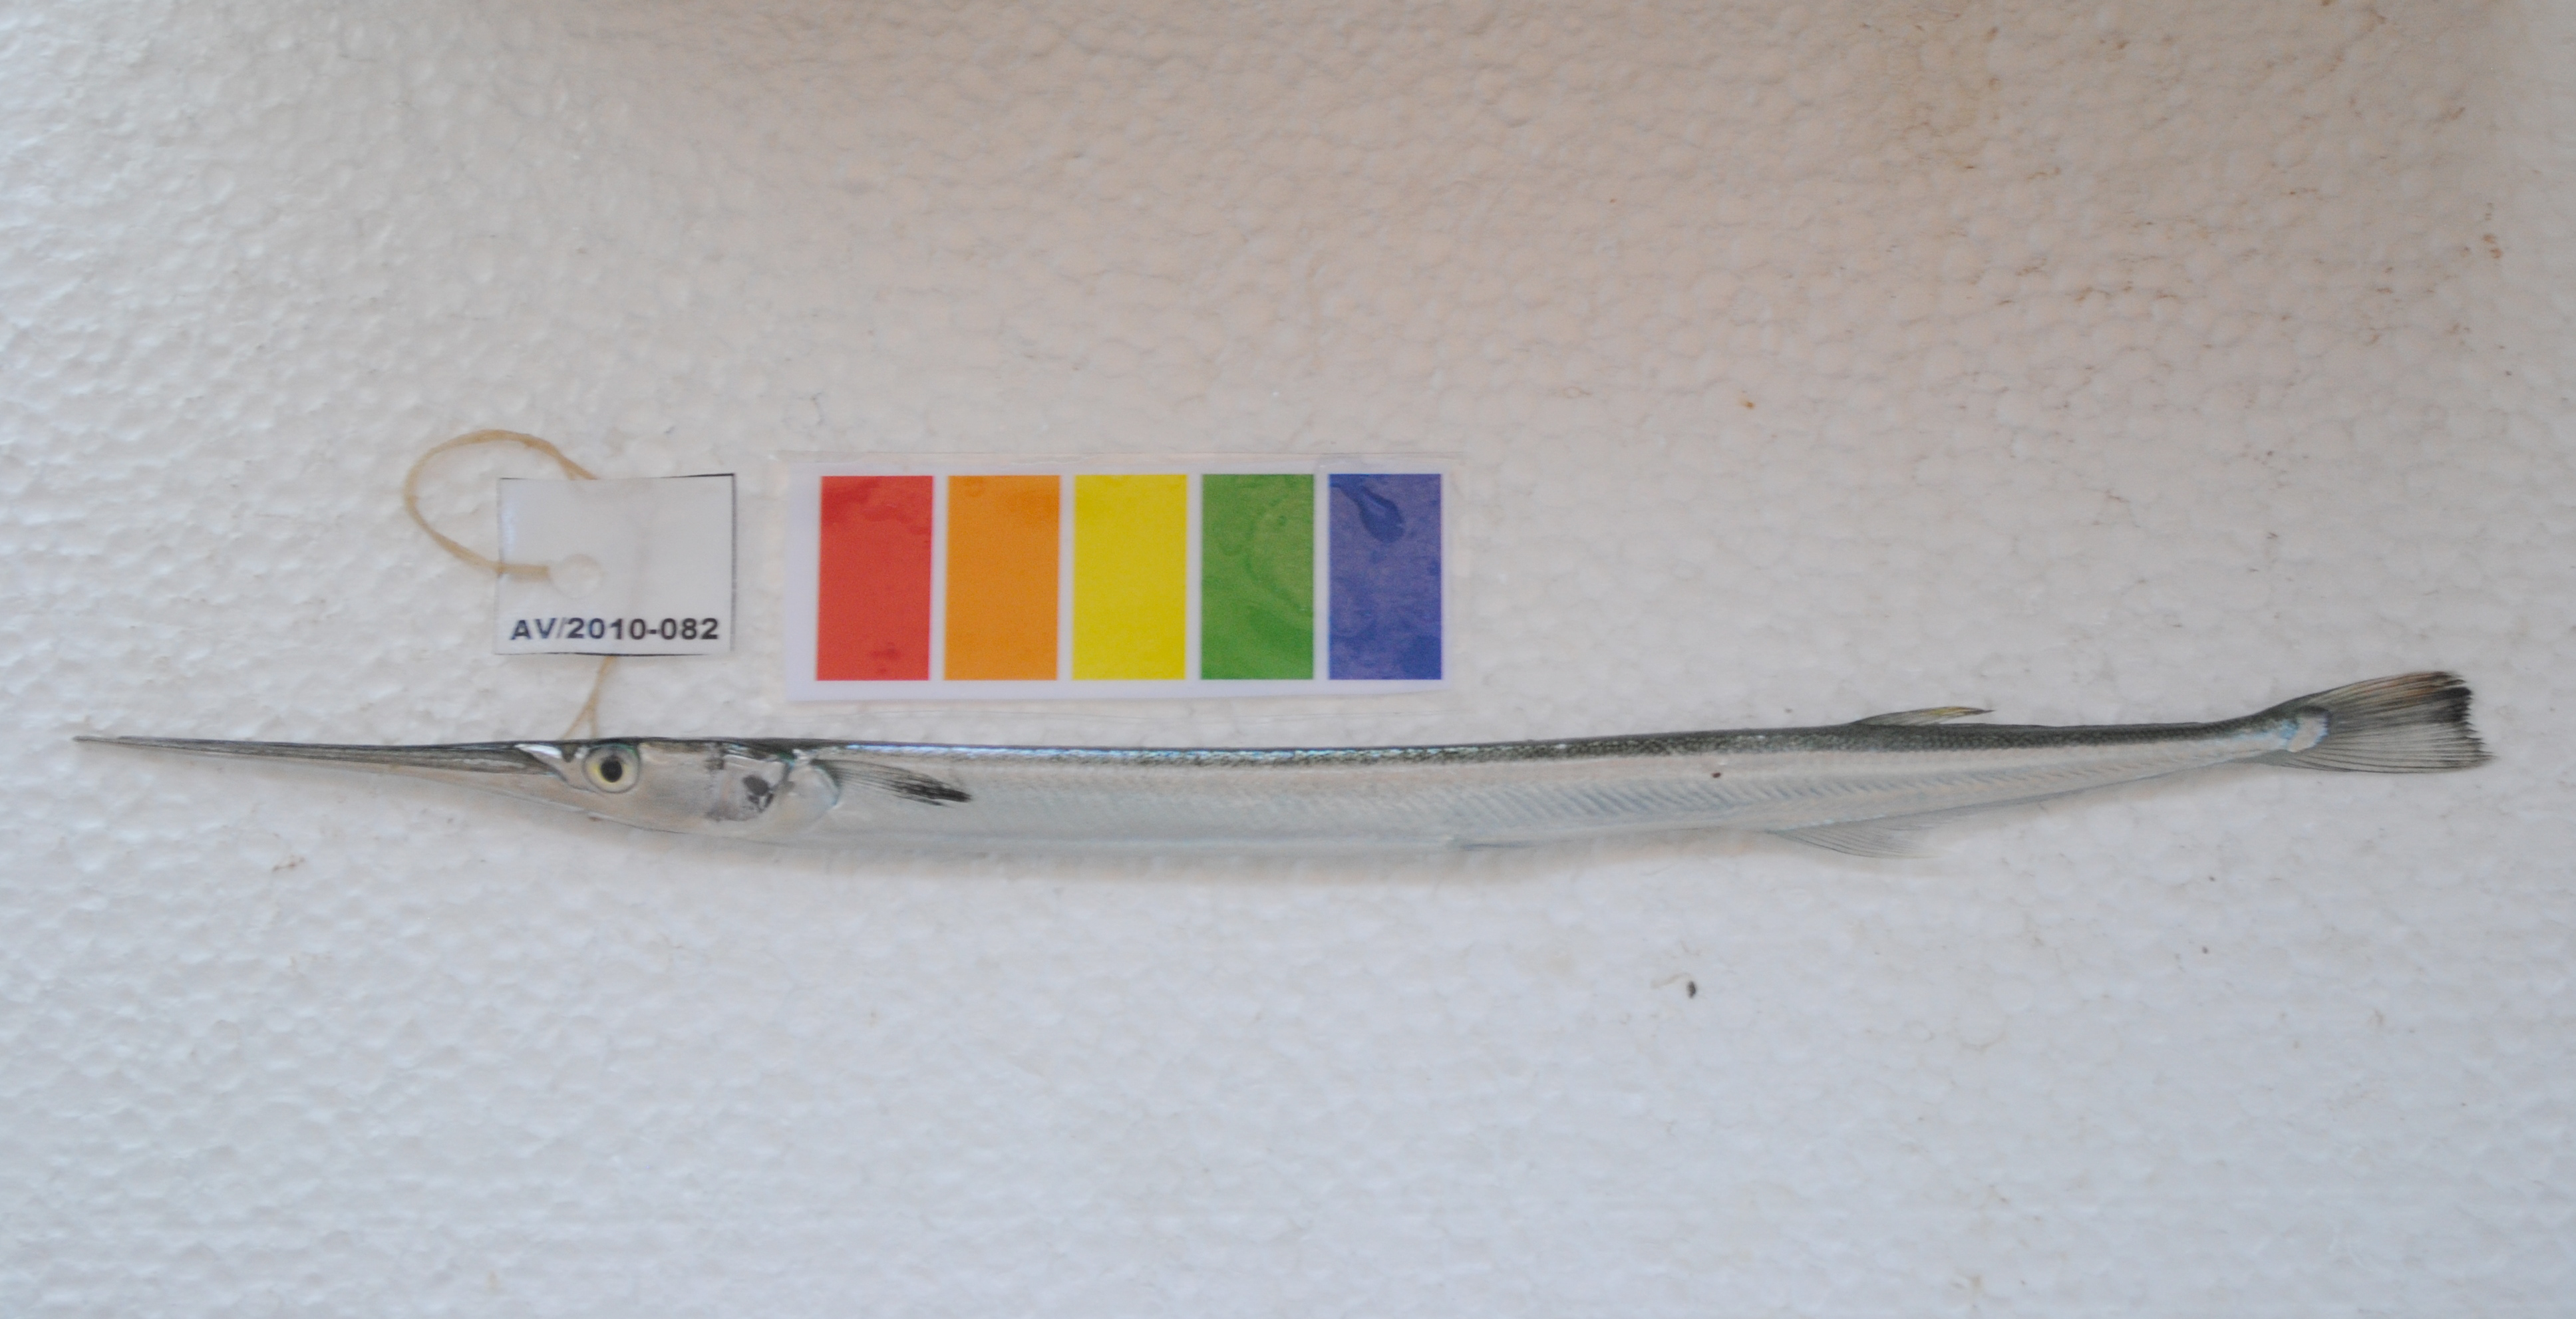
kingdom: Animalia
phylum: Chordata
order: Beloniformes
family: Belonidae
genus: Strongylura
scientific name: Strongylura leiura
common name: Banded needlefish
